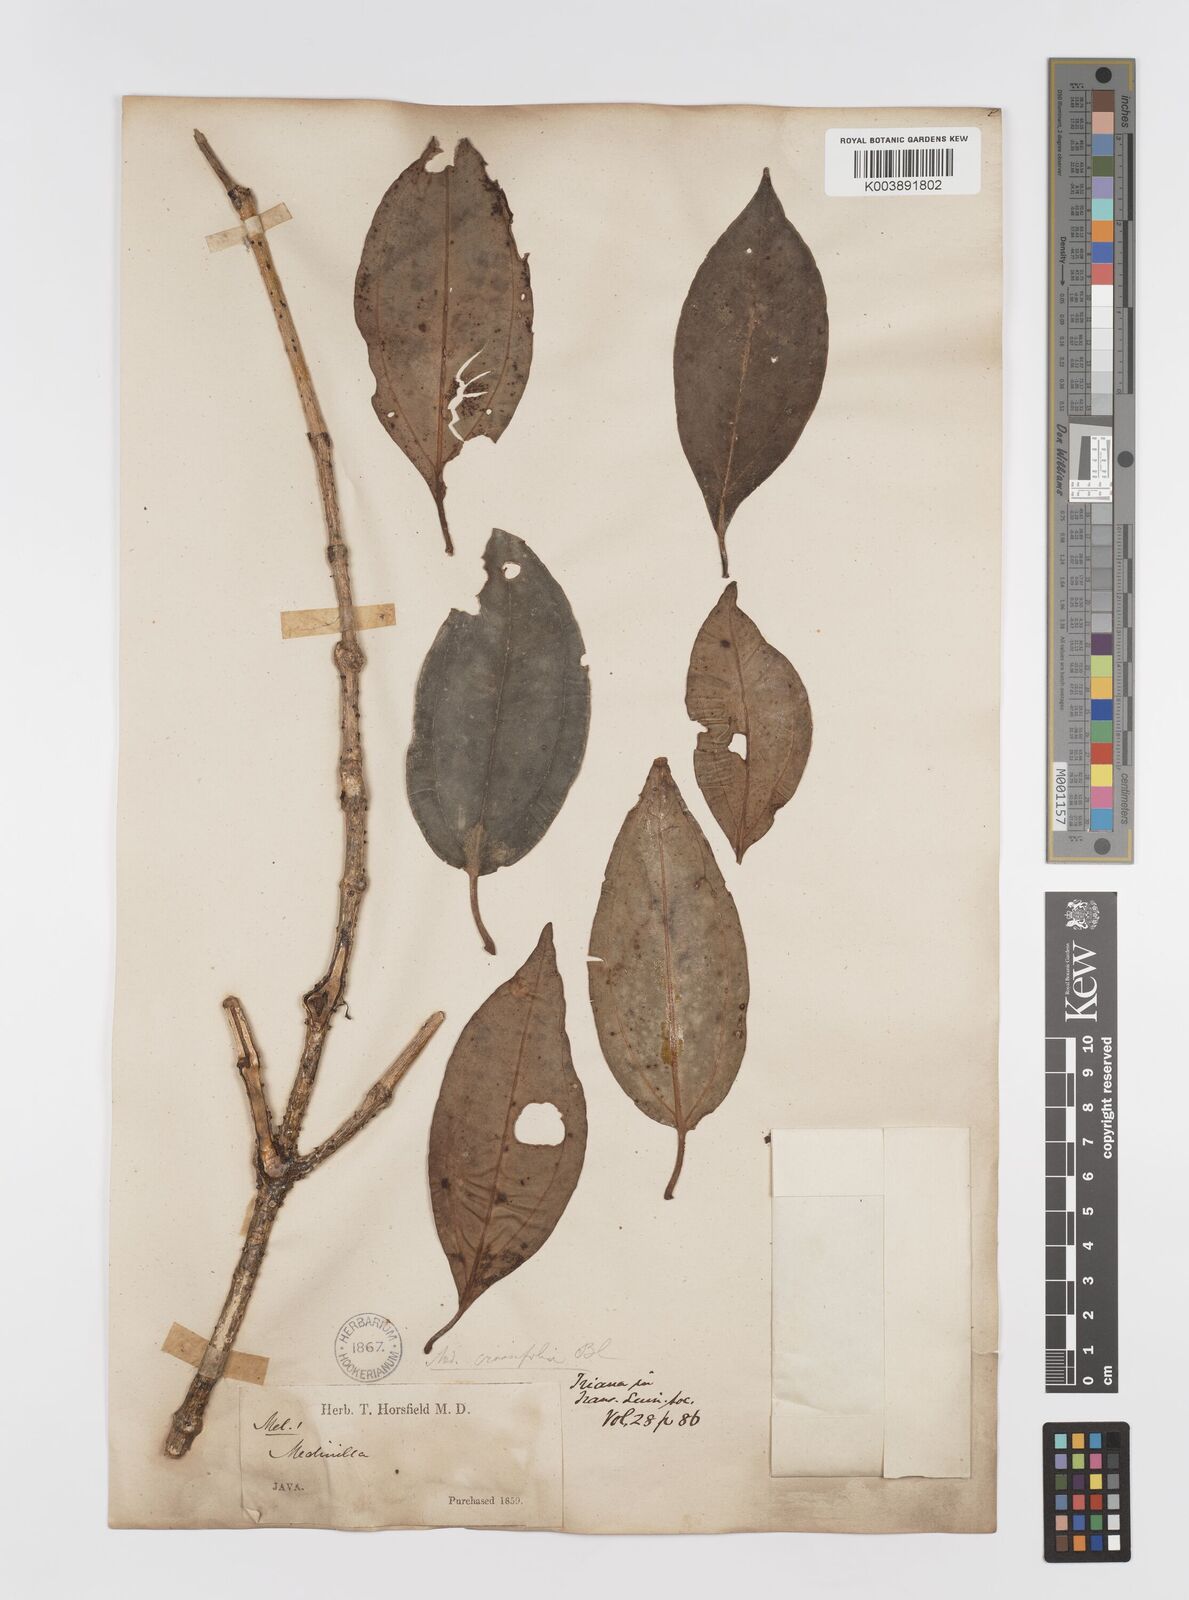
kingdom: Plantae
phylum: Tracheophyta
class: Magnoliopsida
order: Myrtales
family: Melastomataceae
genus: Medinilla
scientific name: Medinilla crassifolia
